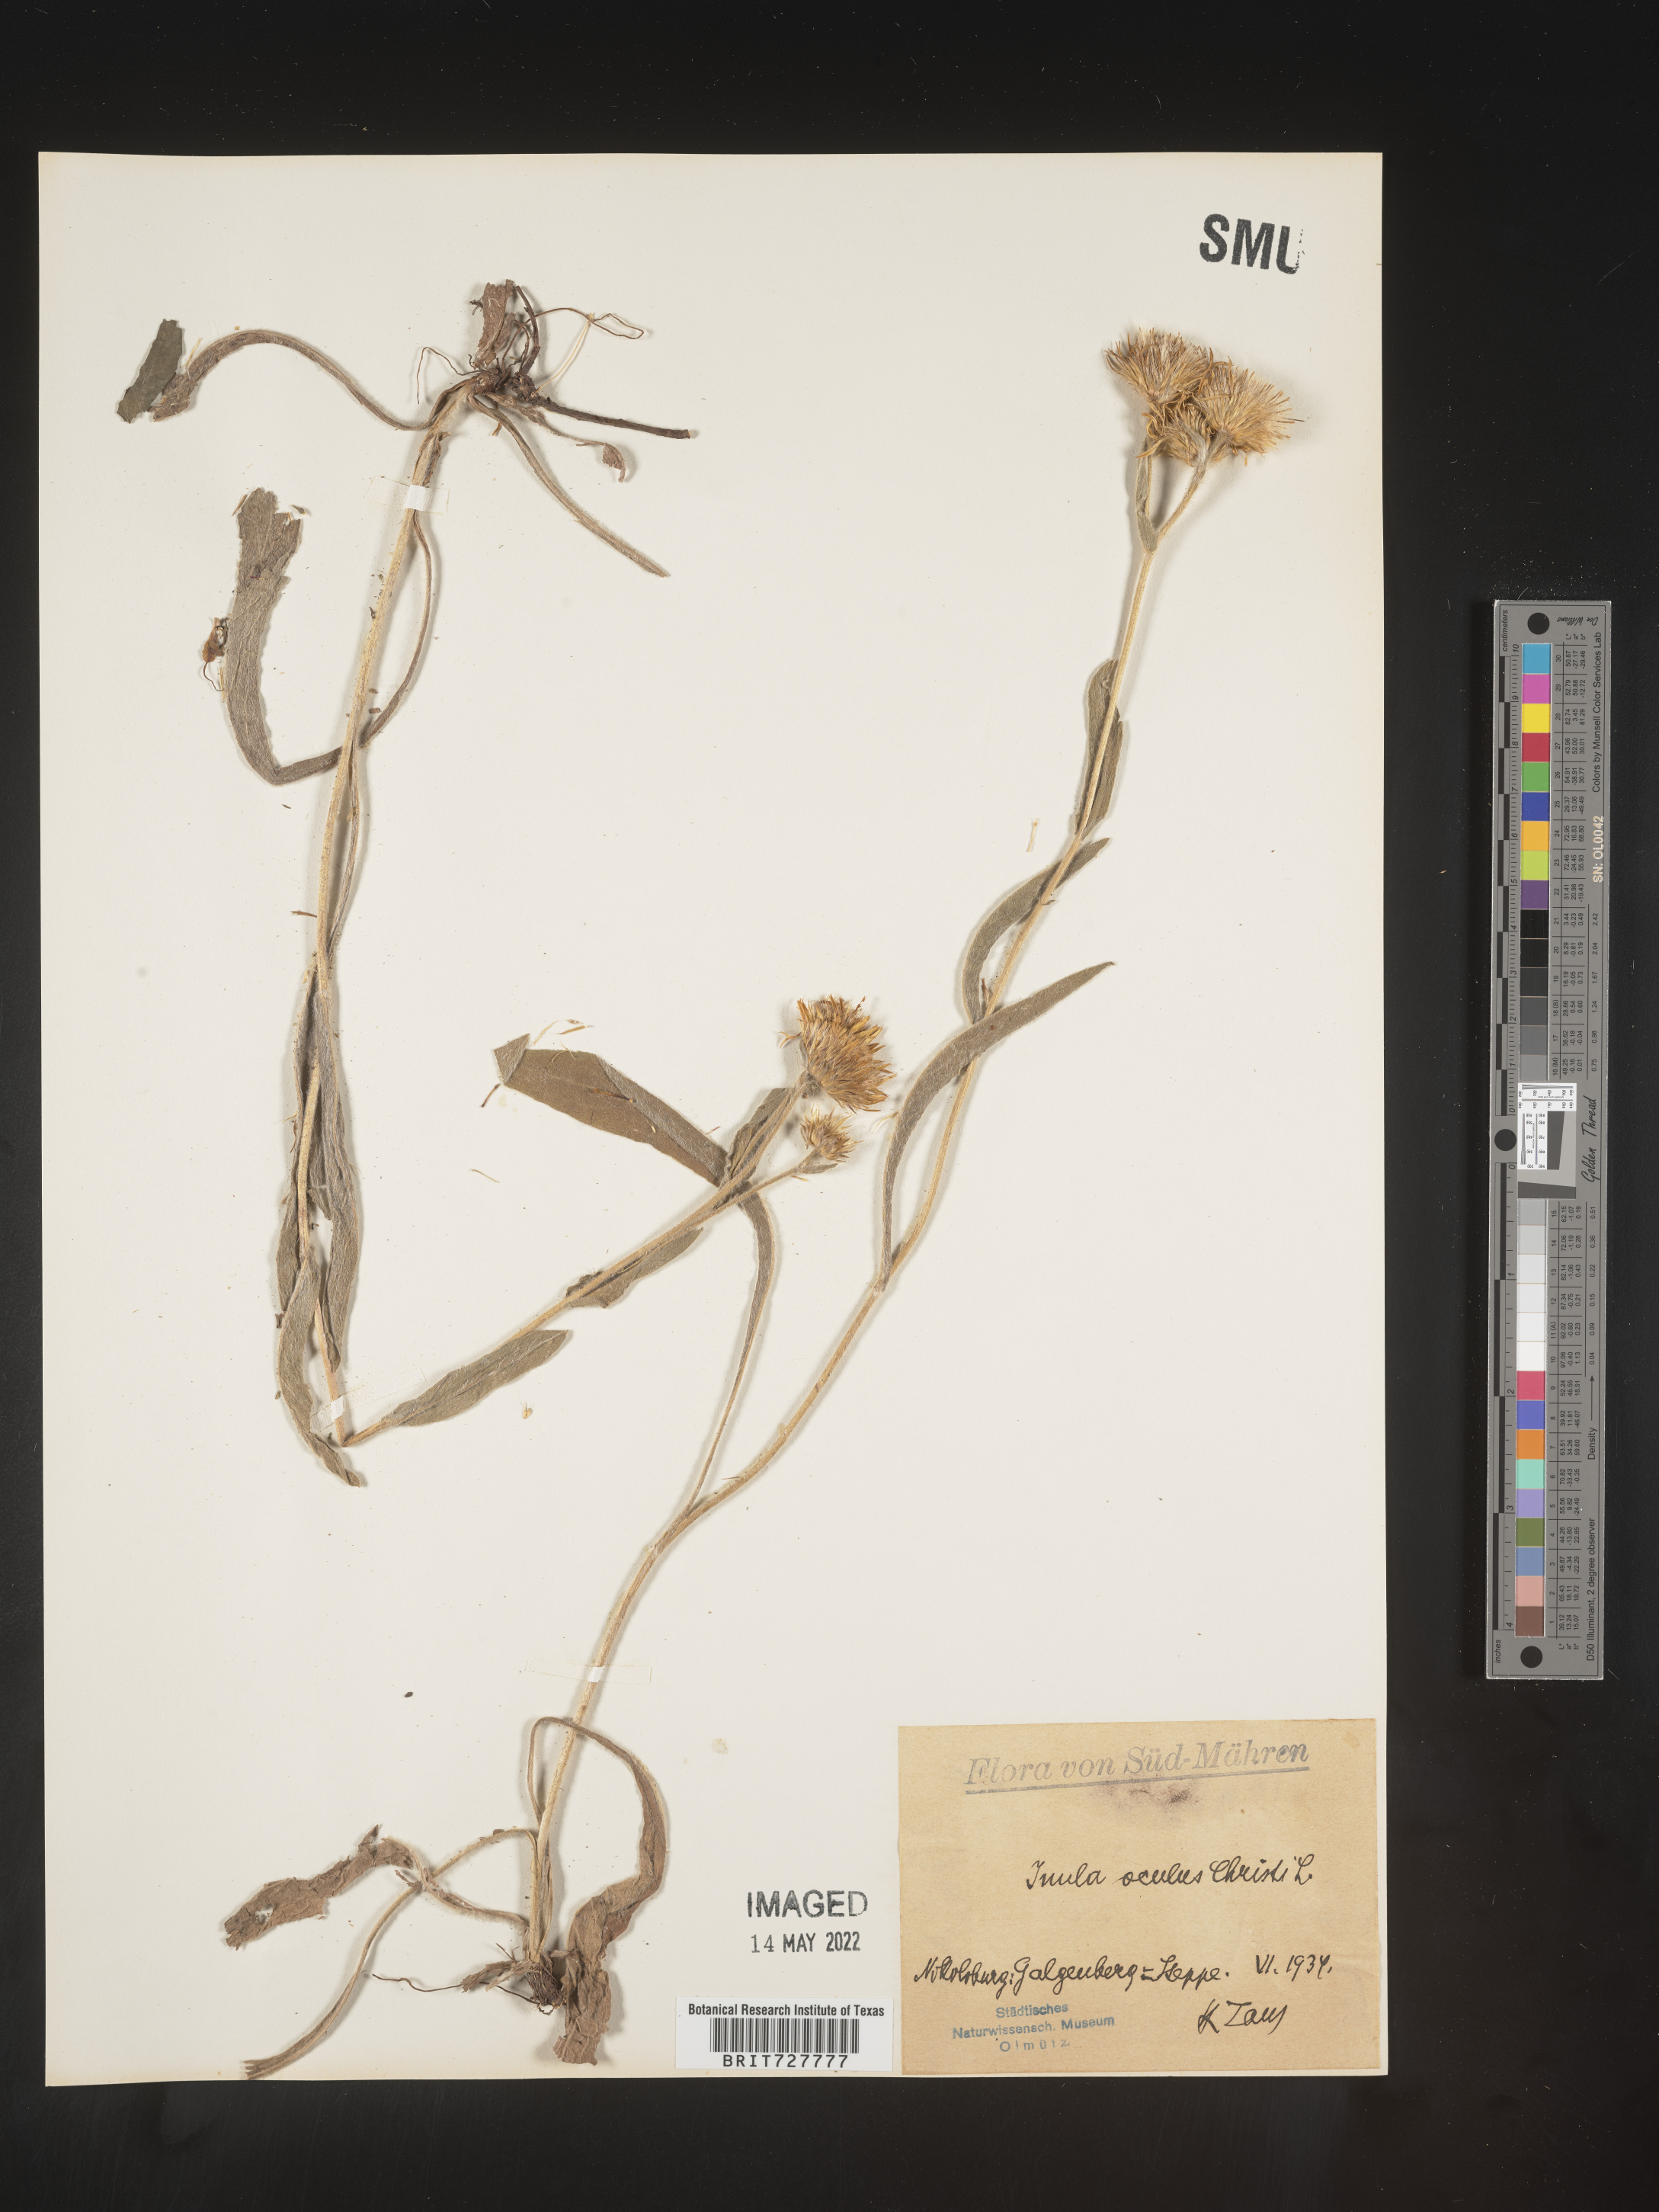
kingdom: Plantae
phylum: Tracheophyta
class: Magnoliopsida
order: Asterales
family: Asteraceae
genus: Inula
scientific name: Inula
